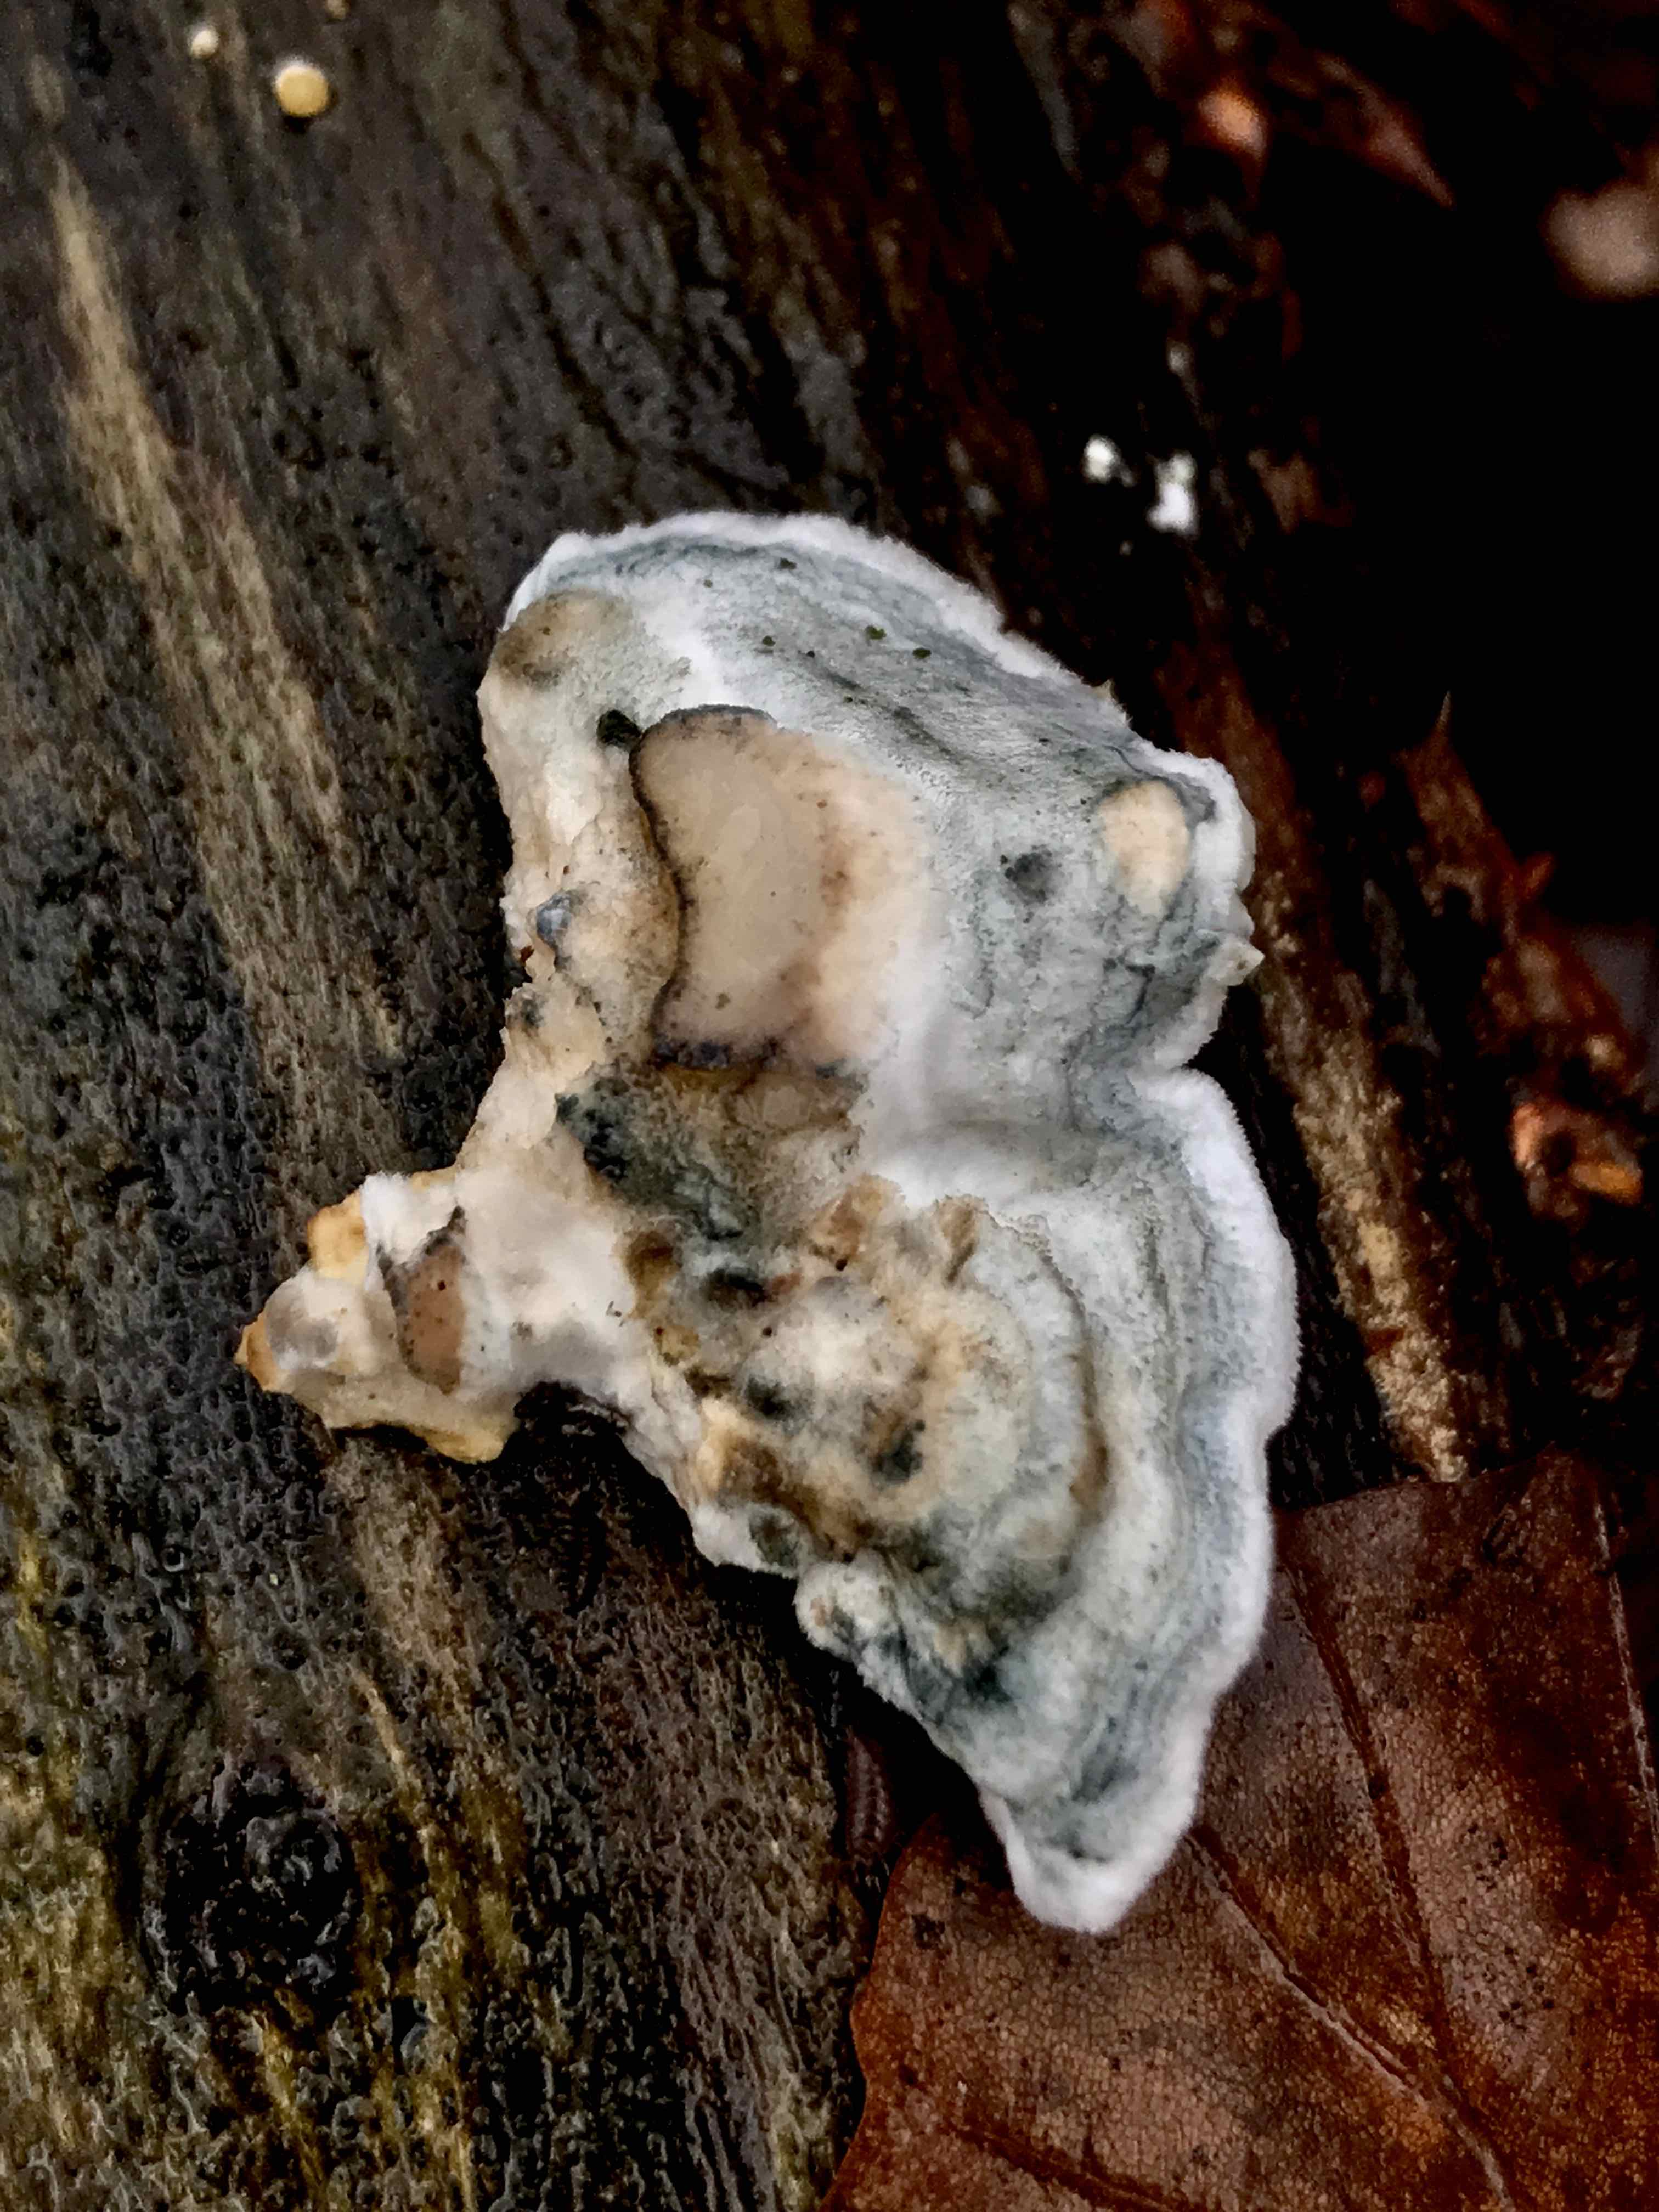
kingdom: Fungi
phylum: Basidiomycota
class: Agaricomycetes
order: Polyporales
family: Polyporaceae
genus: Cyanosporus
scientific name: Cyanosporus alni
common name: blegblå kødporesvamp
